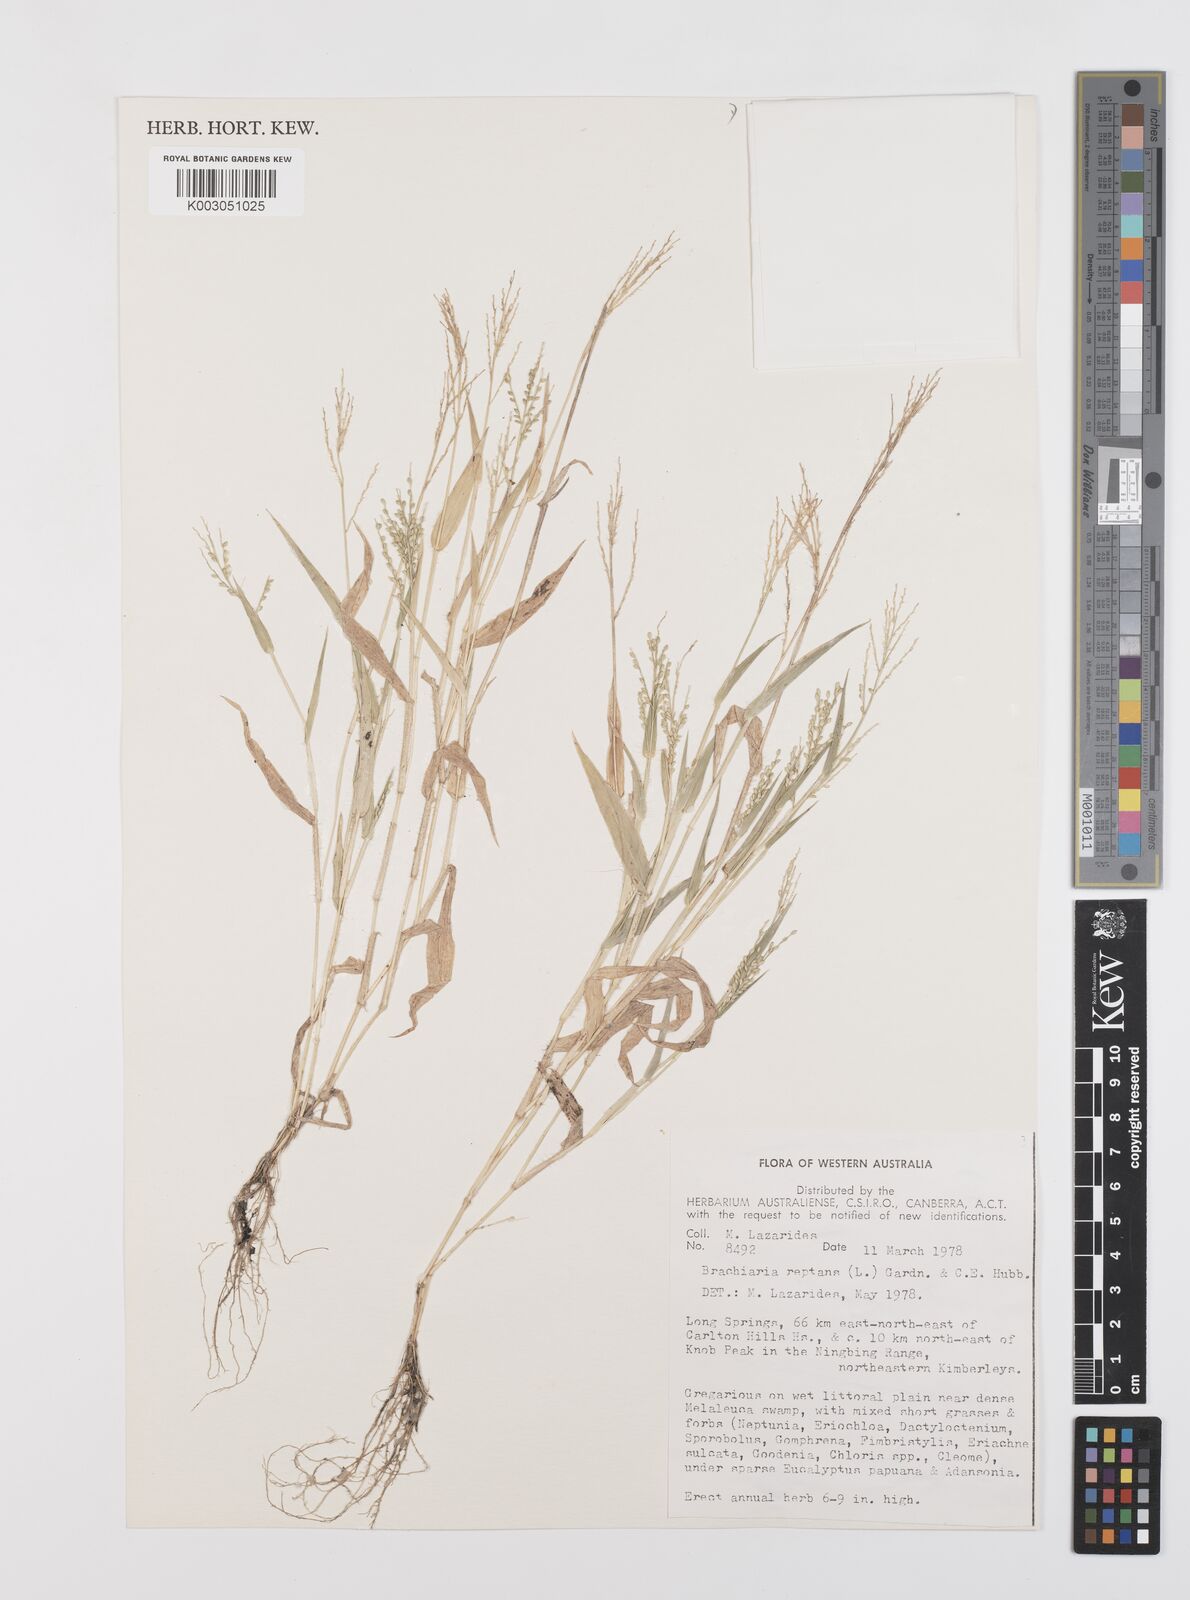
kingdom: Plantae
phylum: Tracheophyta
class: Liliopsida
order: Poales
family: Poaceae
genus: Urochloa
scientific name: Urochloa reptans
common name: Sprawling signalgrass
